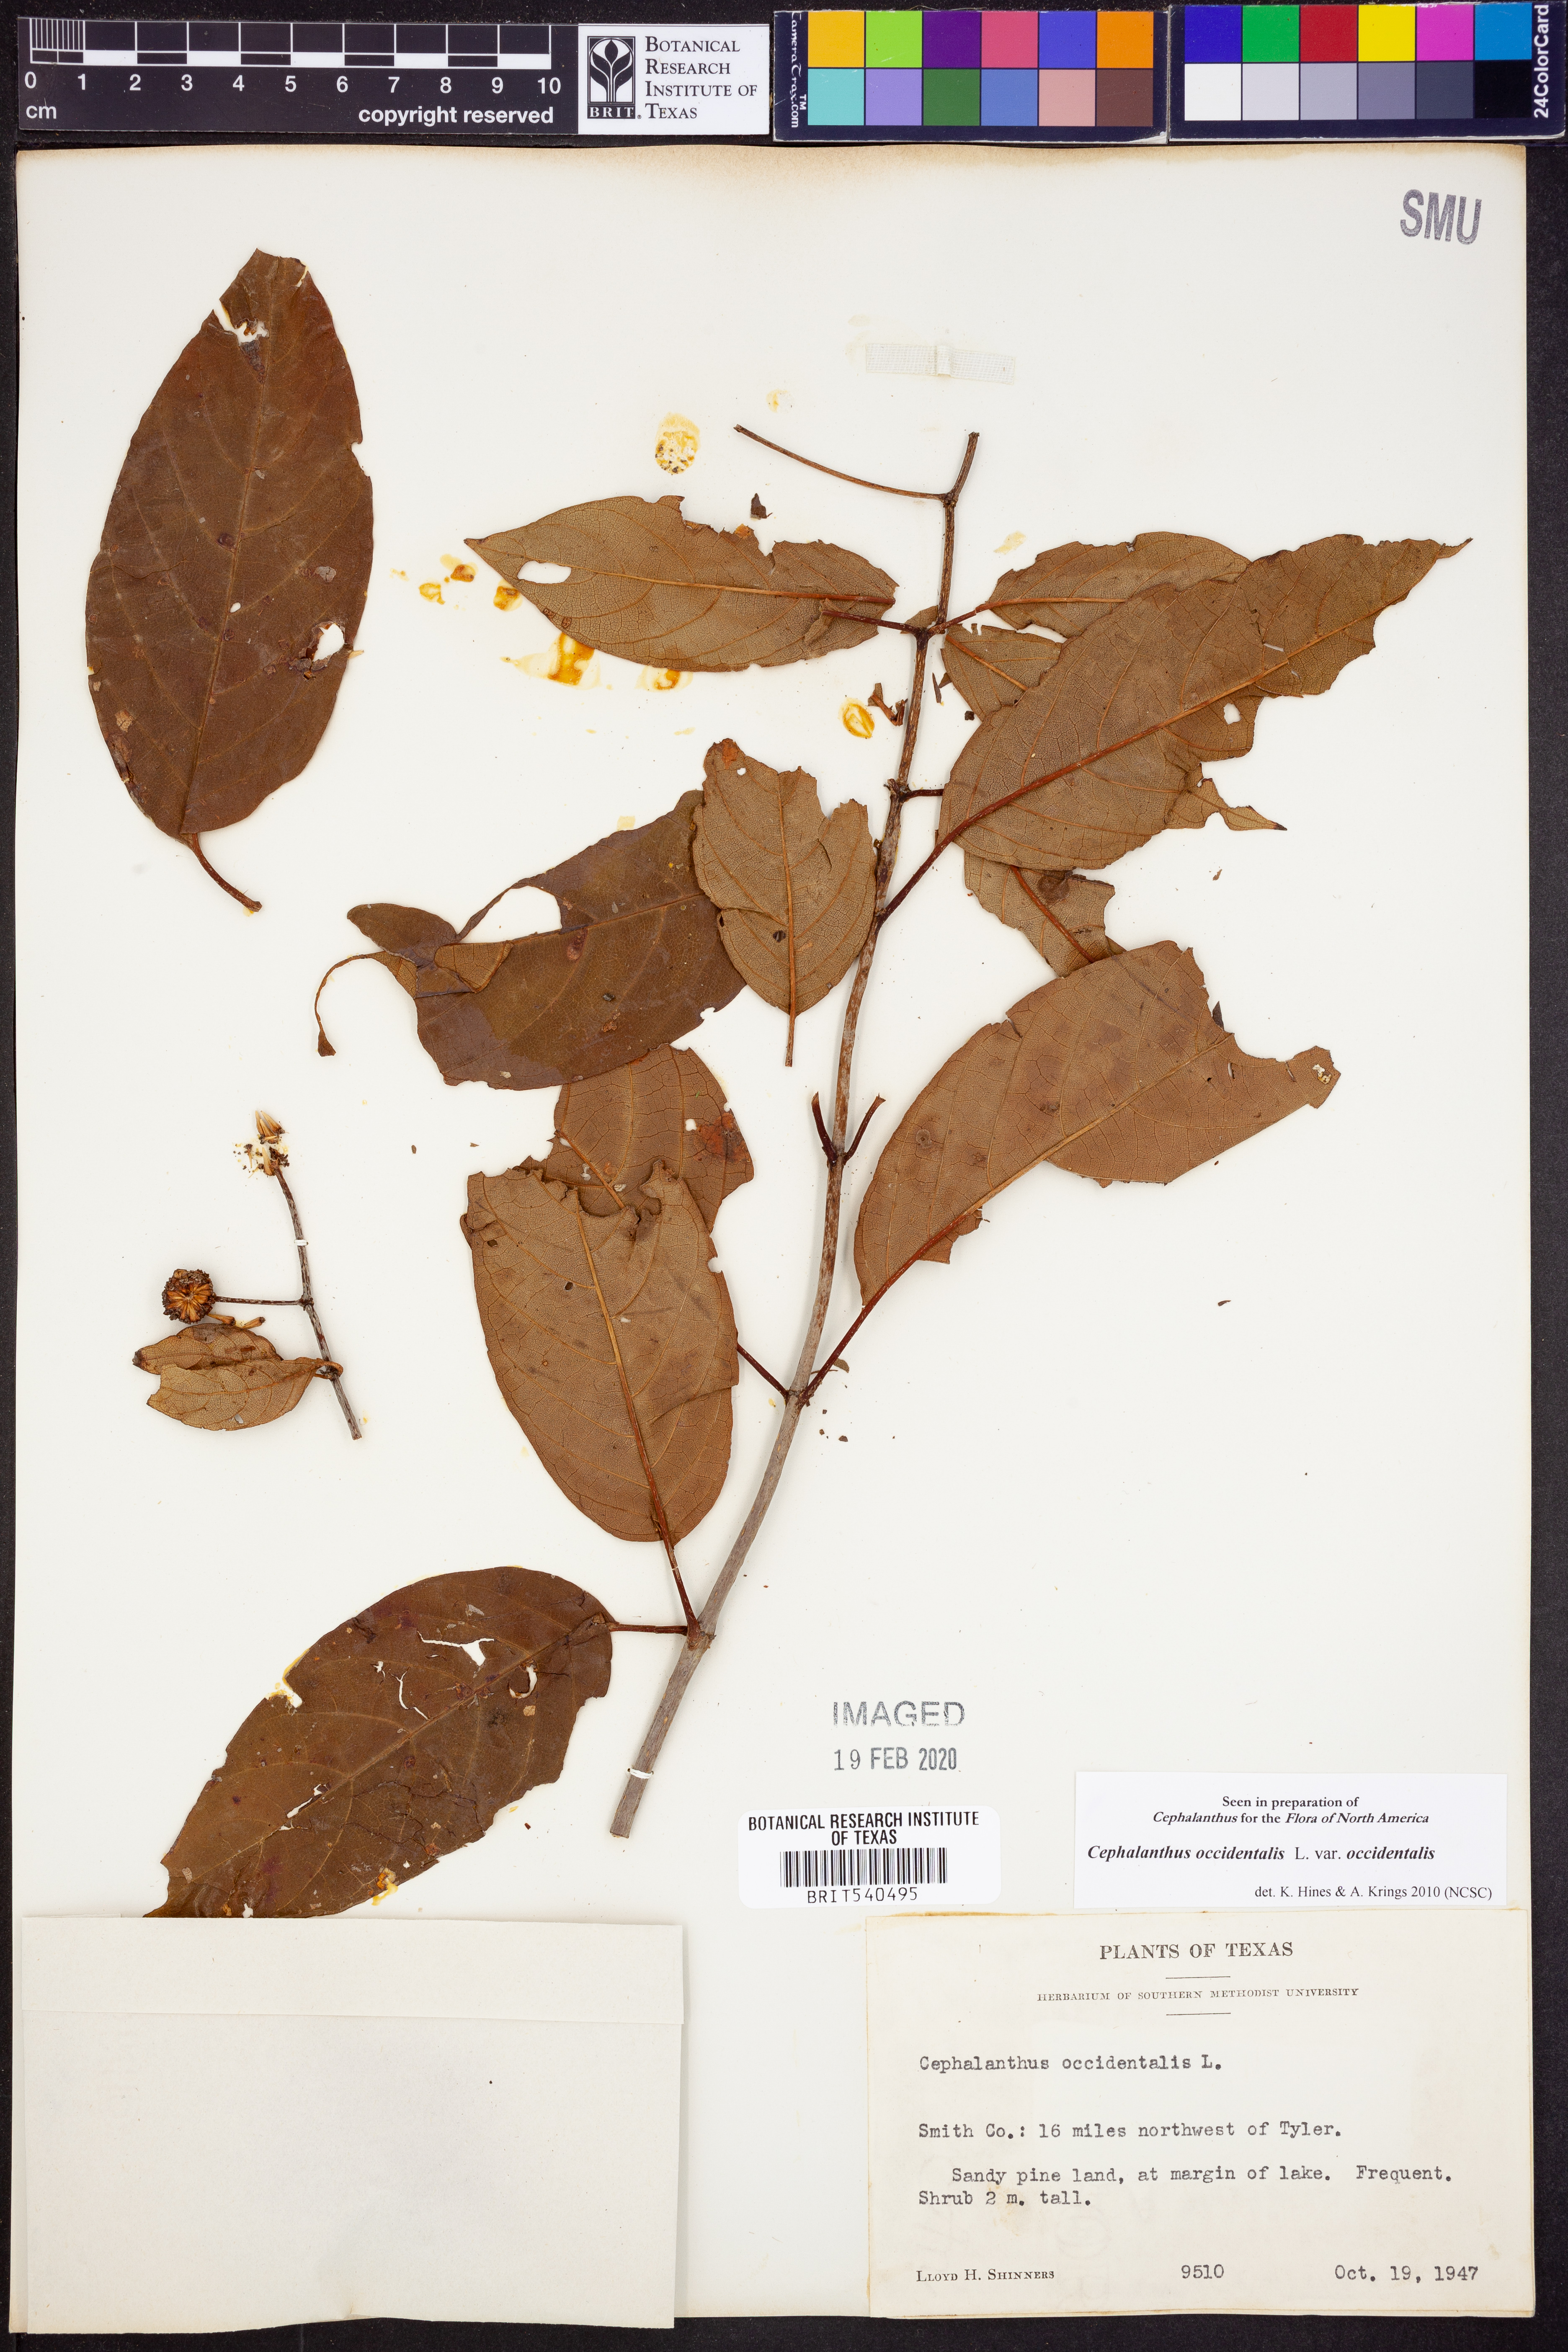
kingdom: Plantae
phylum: Tracheophyta
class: Magnoliopsida
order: Gentianales
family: Rubiaceae
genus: Cephalanthus
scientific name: Cephalanthus occidentalis
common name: Button-willow
